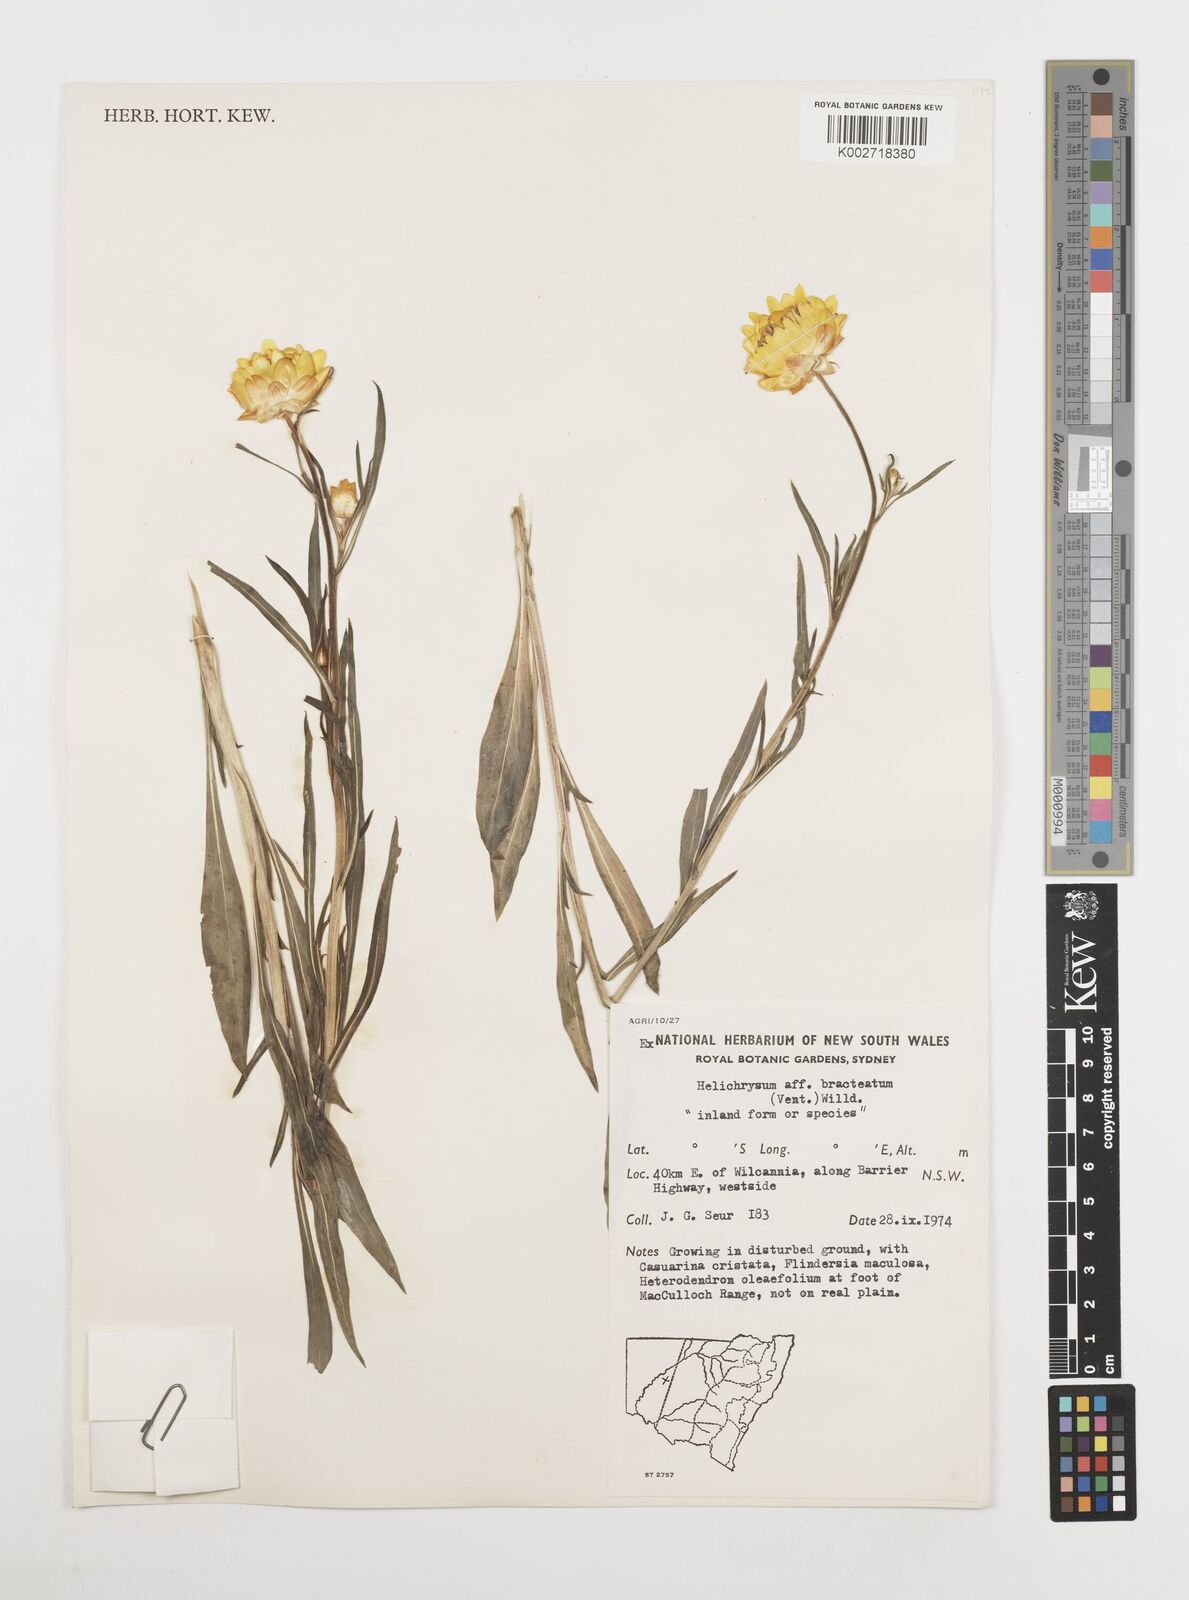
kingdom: Plantae
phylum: Tracheophyta
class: Magnoliopsida
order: Asterales
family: Asteraceae
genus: Xerochrysum
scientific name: Xerochrysum bracteatum
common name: Bracted strawflower
